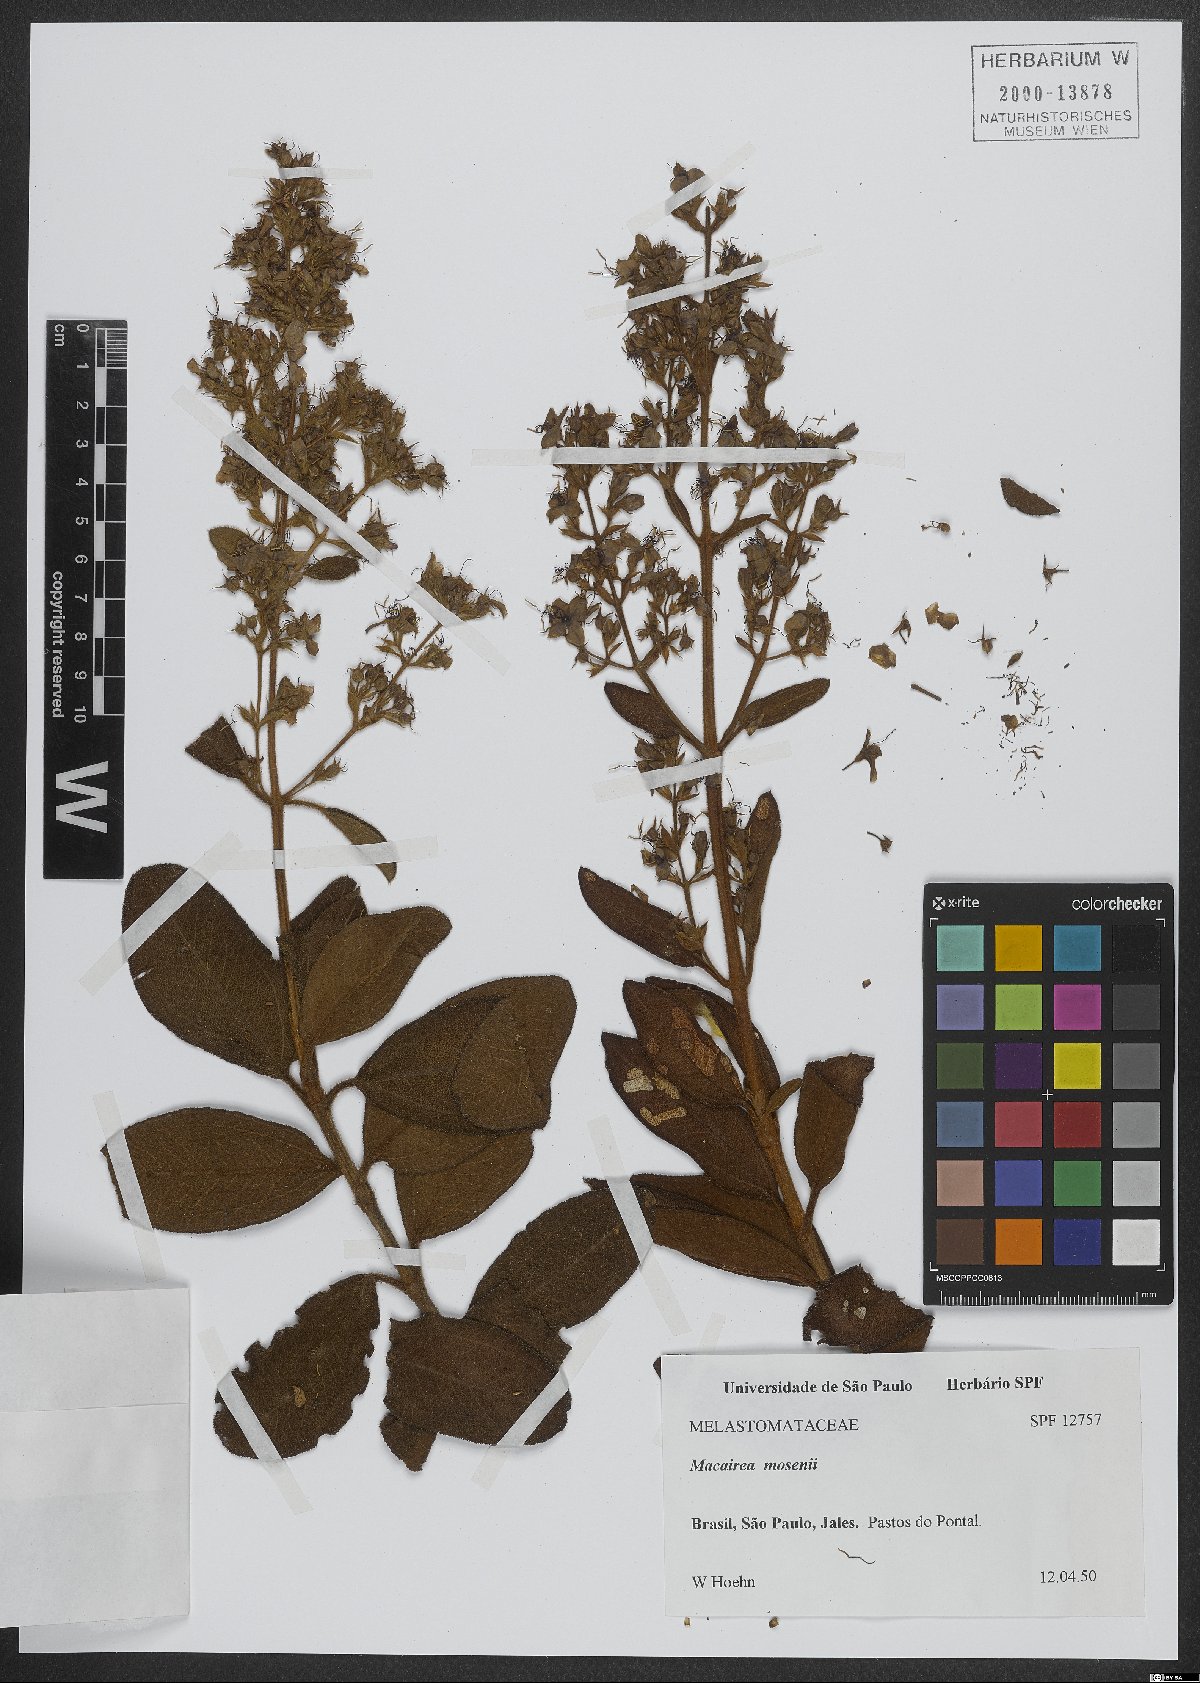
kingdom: Plantae
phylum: Tracheophyta
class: Magnoliopsida
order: Myrtales
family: Melastomataceae
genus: Macairea
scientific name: Macairea radula
